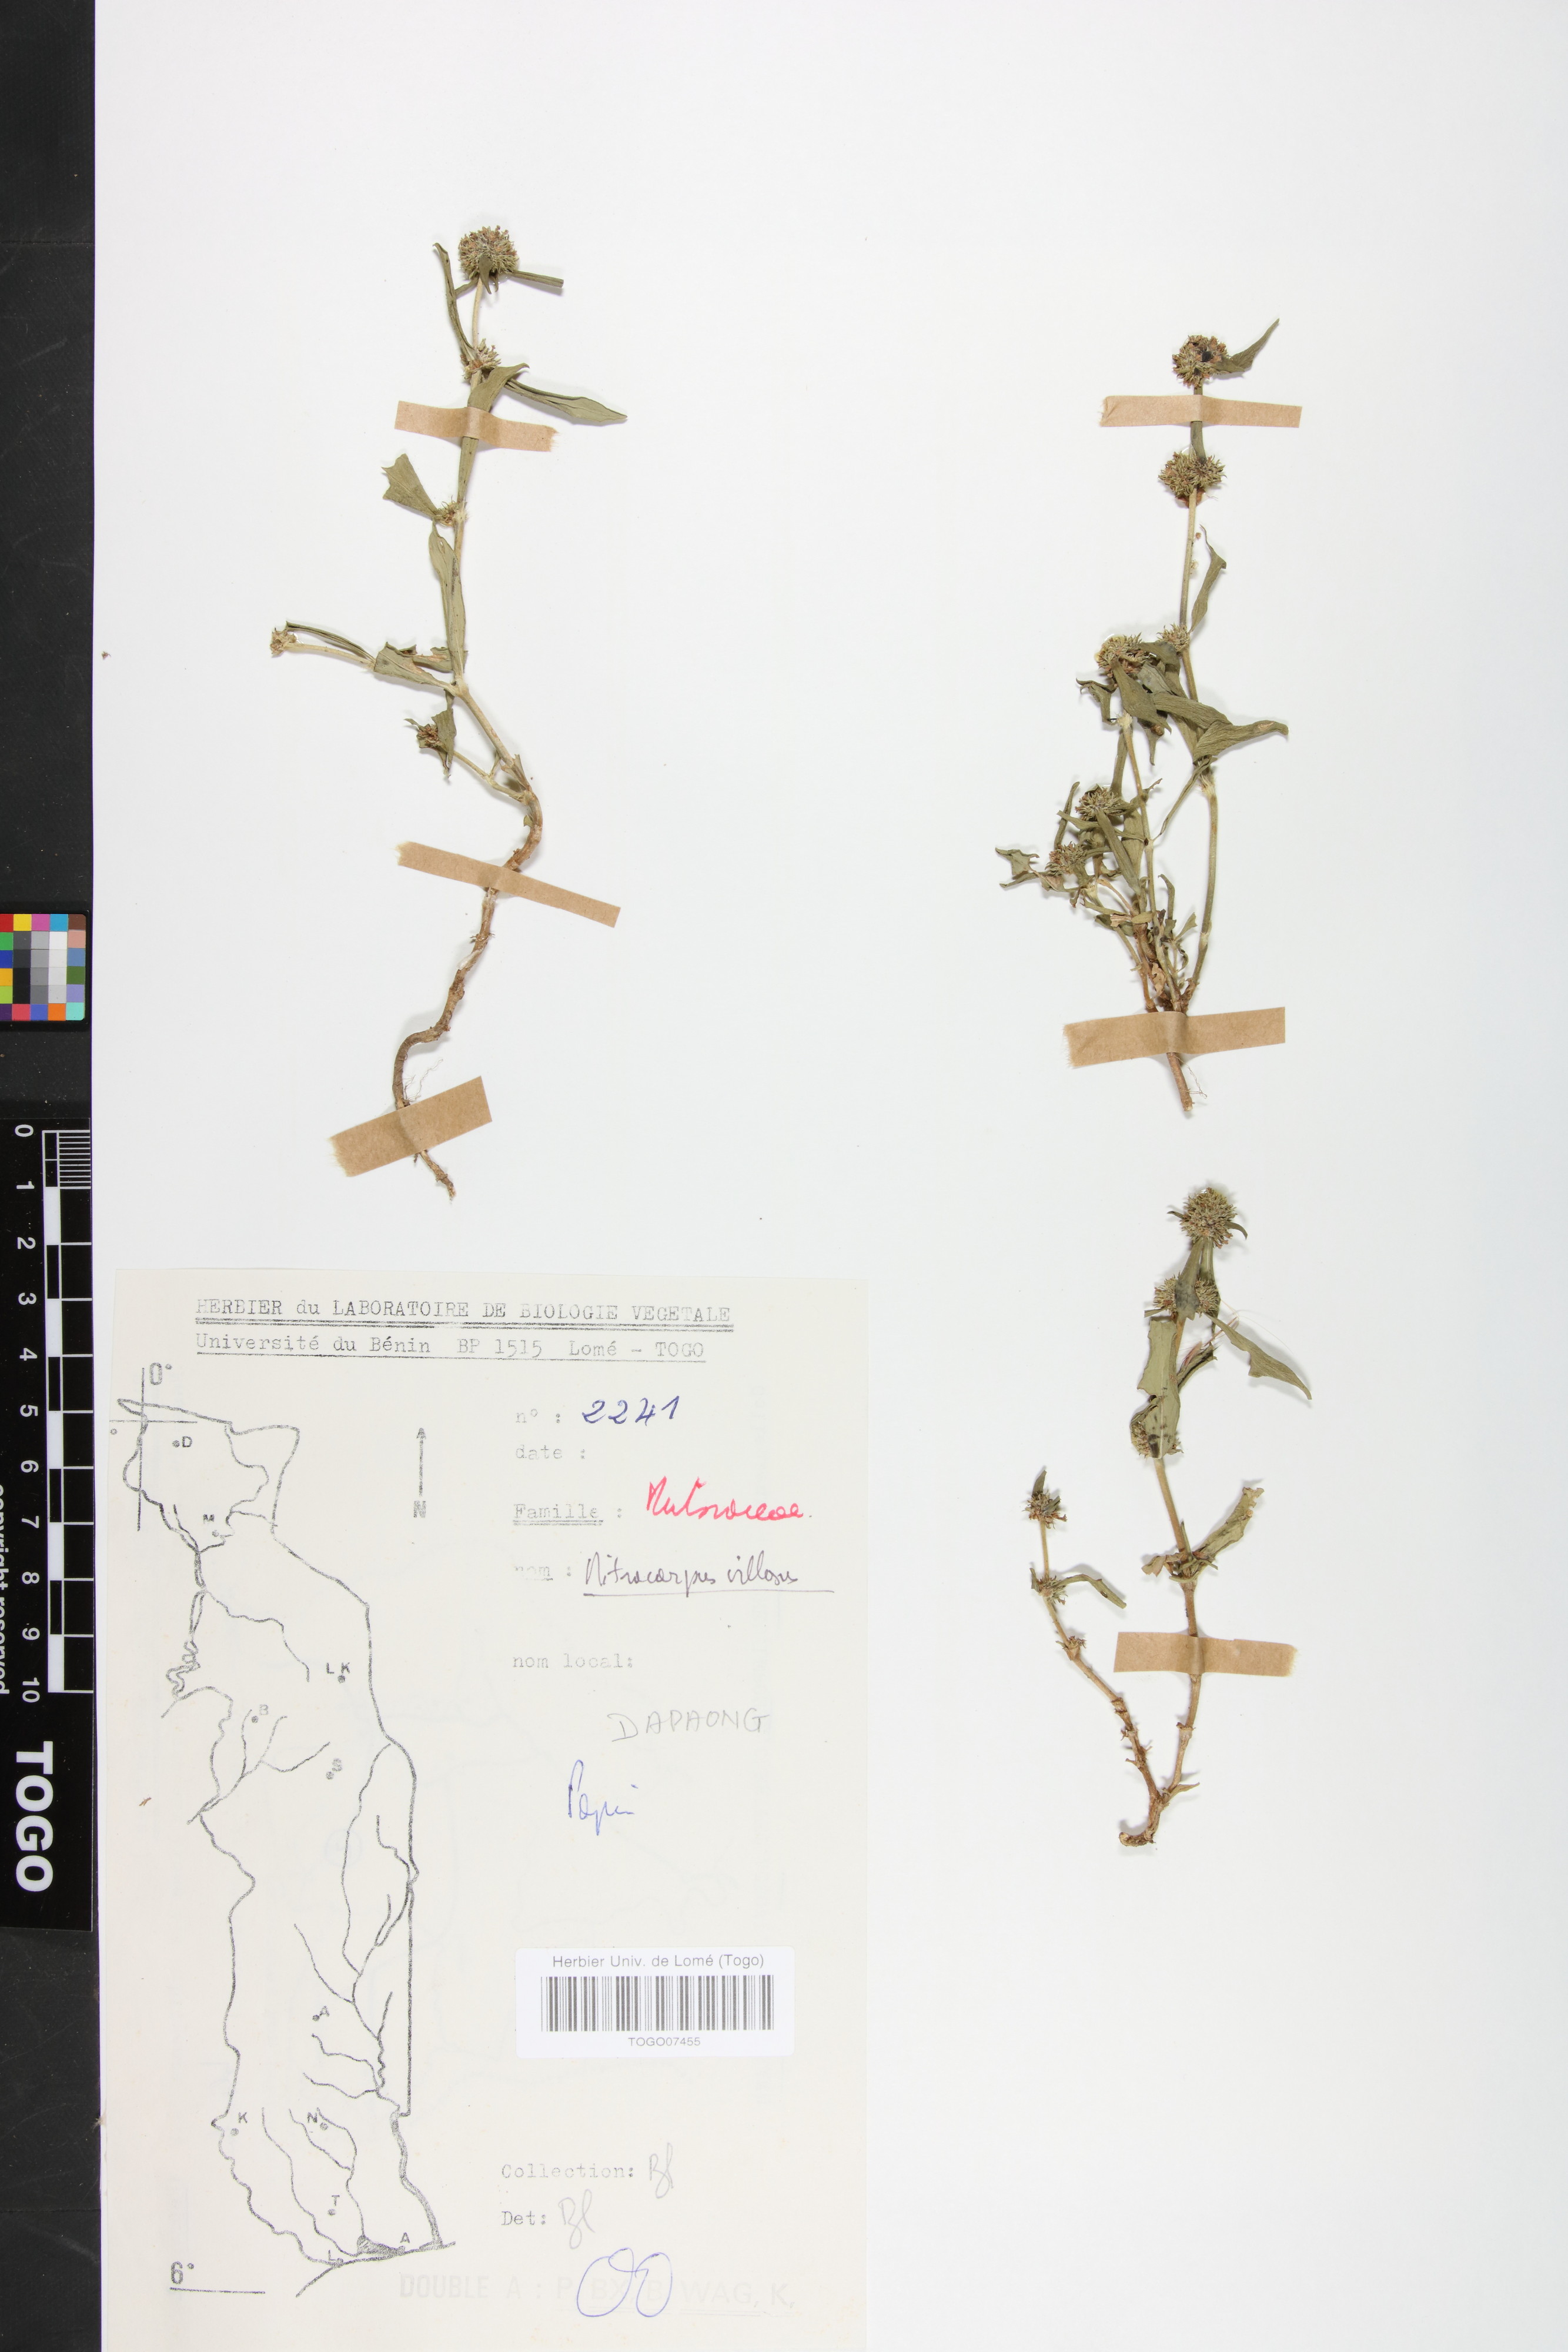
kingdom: Plantae
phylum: Tracheophyta
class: Magnoliopsida
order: Gentianales
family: Rubiaceae
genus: Mitracarpus
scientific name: Mitracarpus hirtus
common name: Tropical girdlepod
